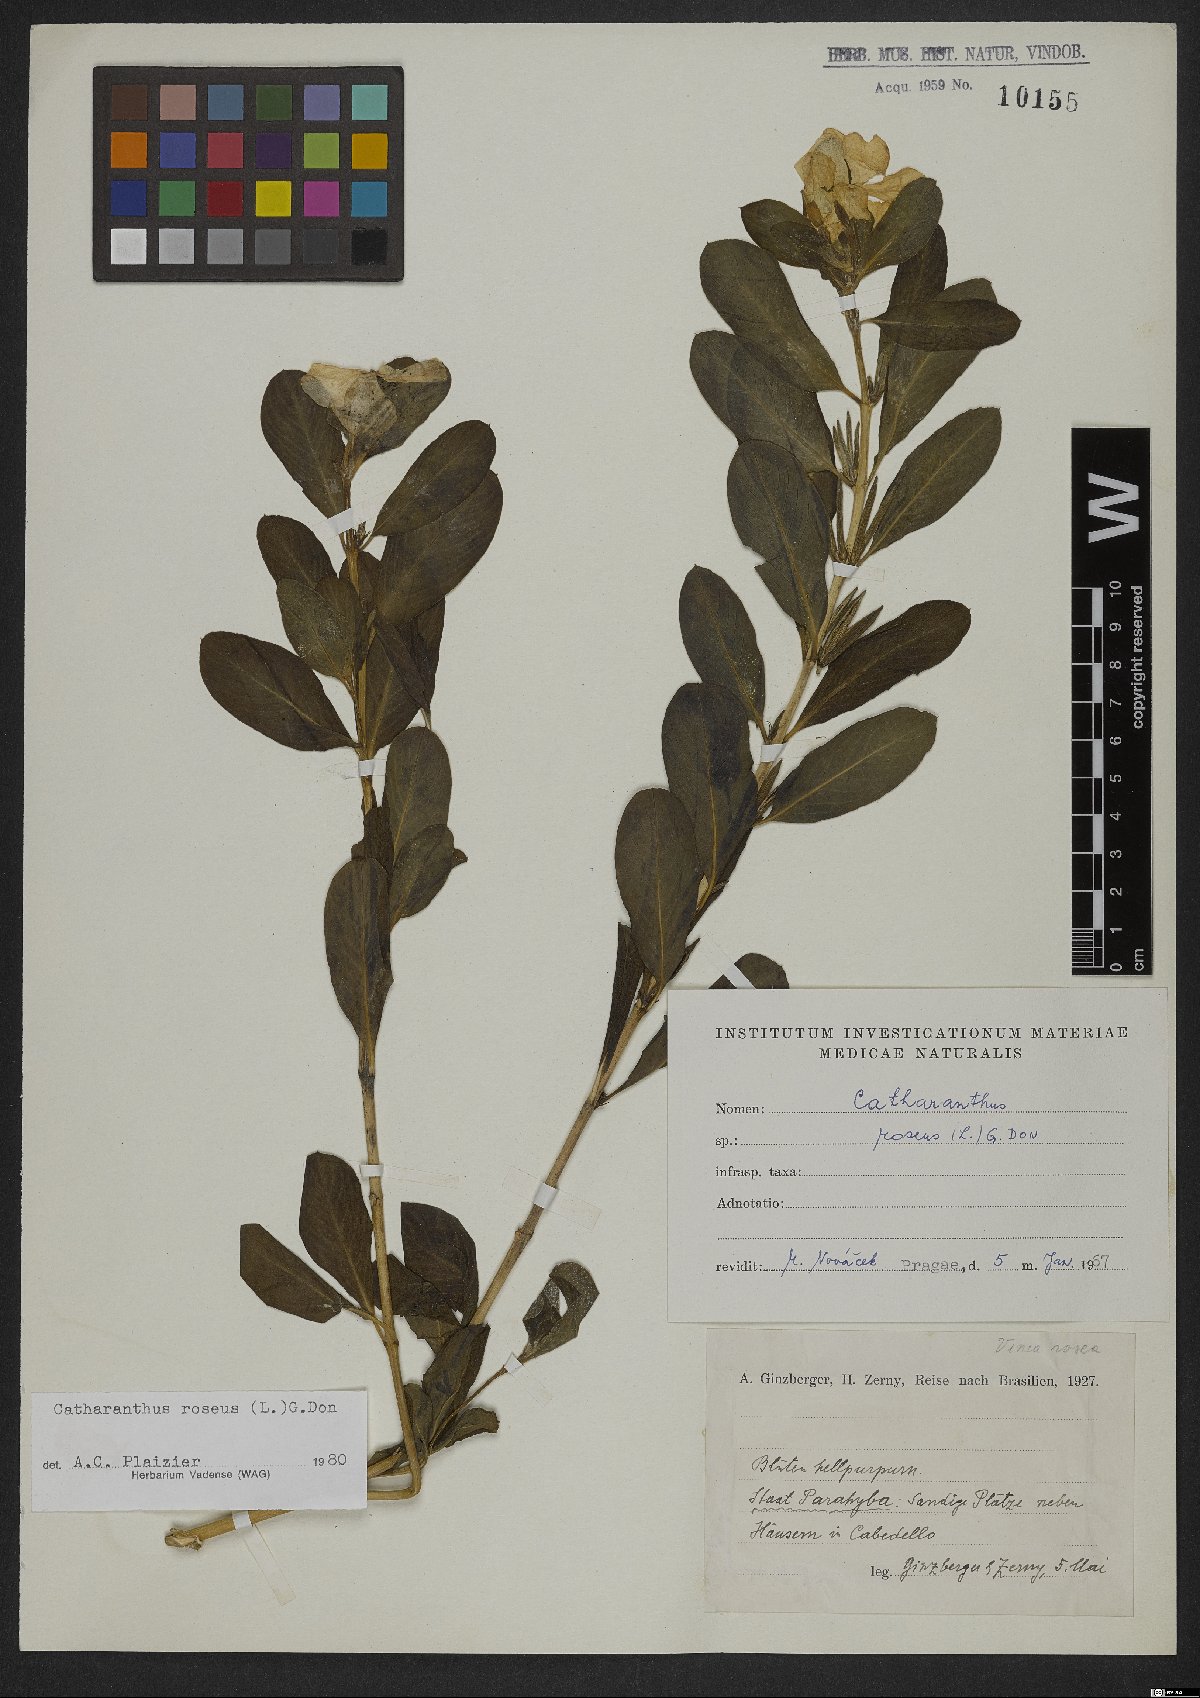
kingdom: Plantae
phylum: Tracheophyta
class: Magnoliopsida
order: Gentianales
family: Apocynaceae
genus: Catharanthus
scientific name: Catharanthus roseus
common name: Madagascar periwinkle
